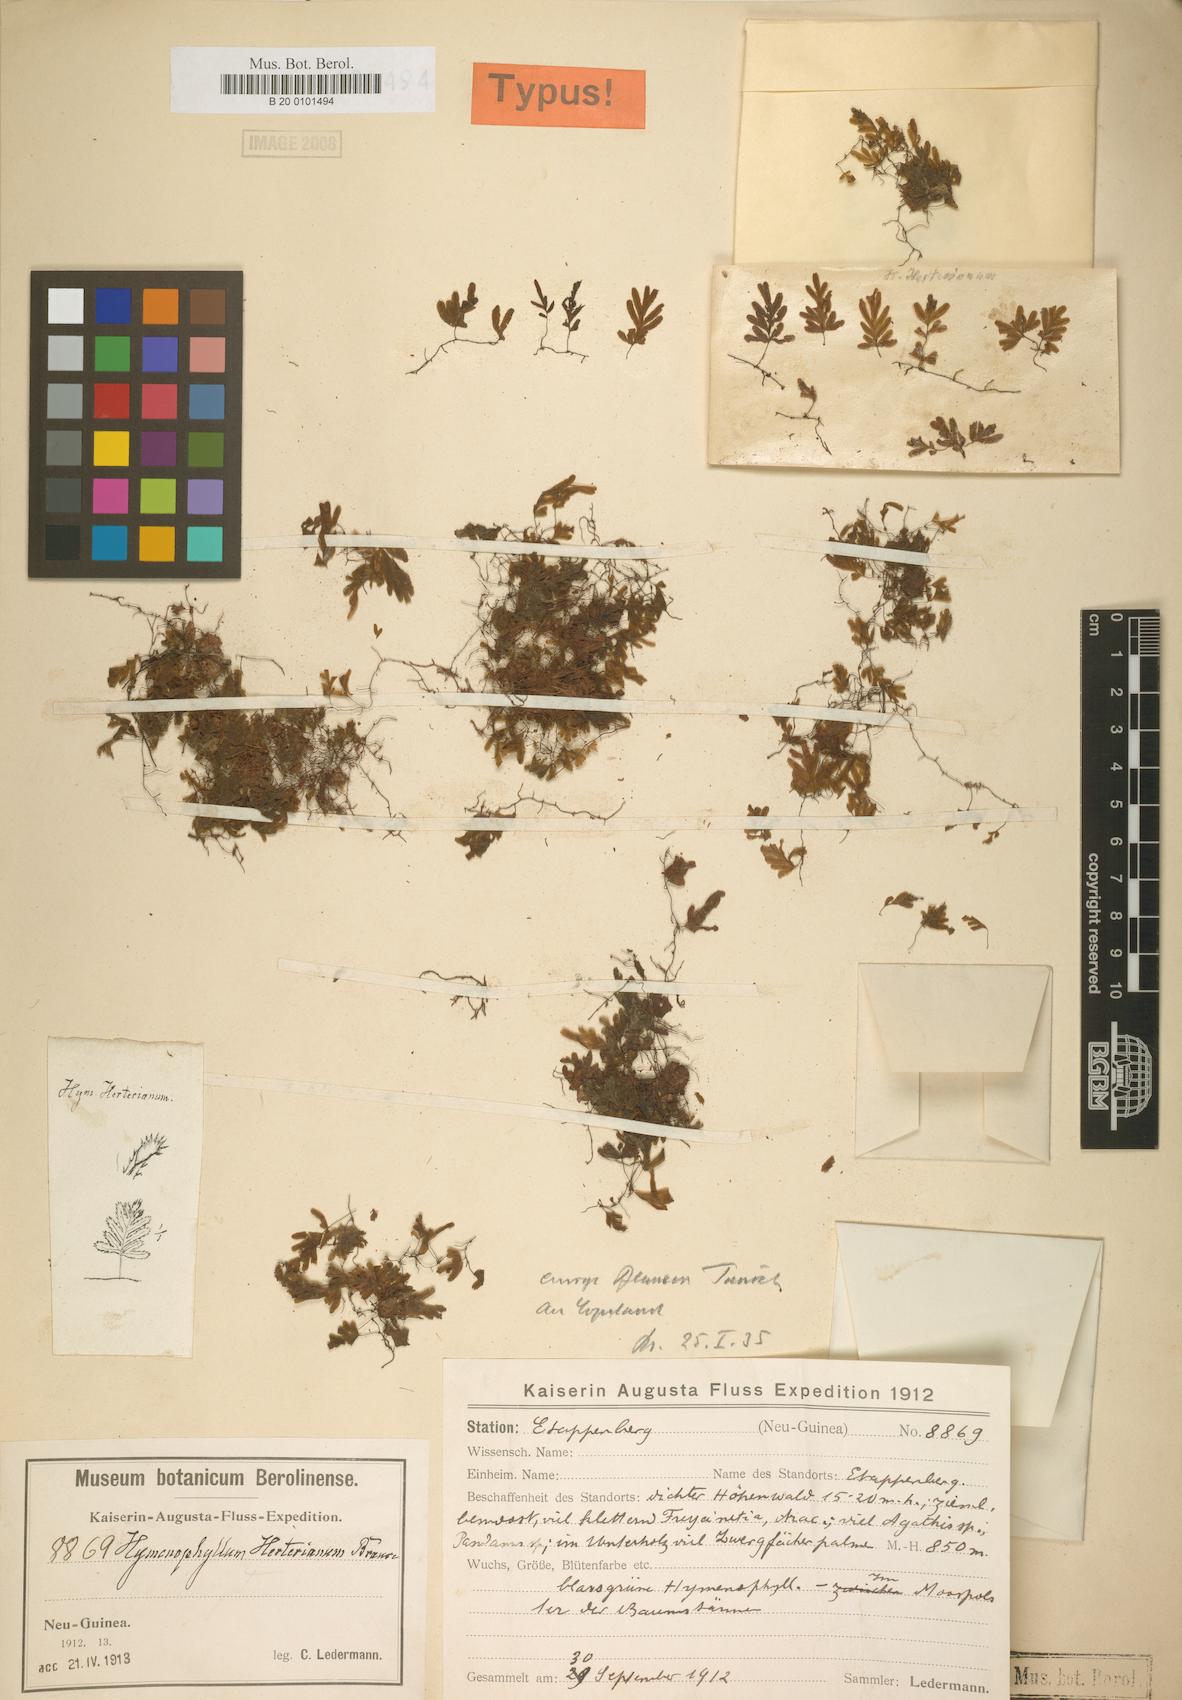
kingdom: Plantae
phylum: Tracheophyta
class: Polypodiopsida
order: Hymenophyllales
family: Hymenophyllaceae
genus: Hymenophyllum
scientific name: Hymenophyllum blandum
